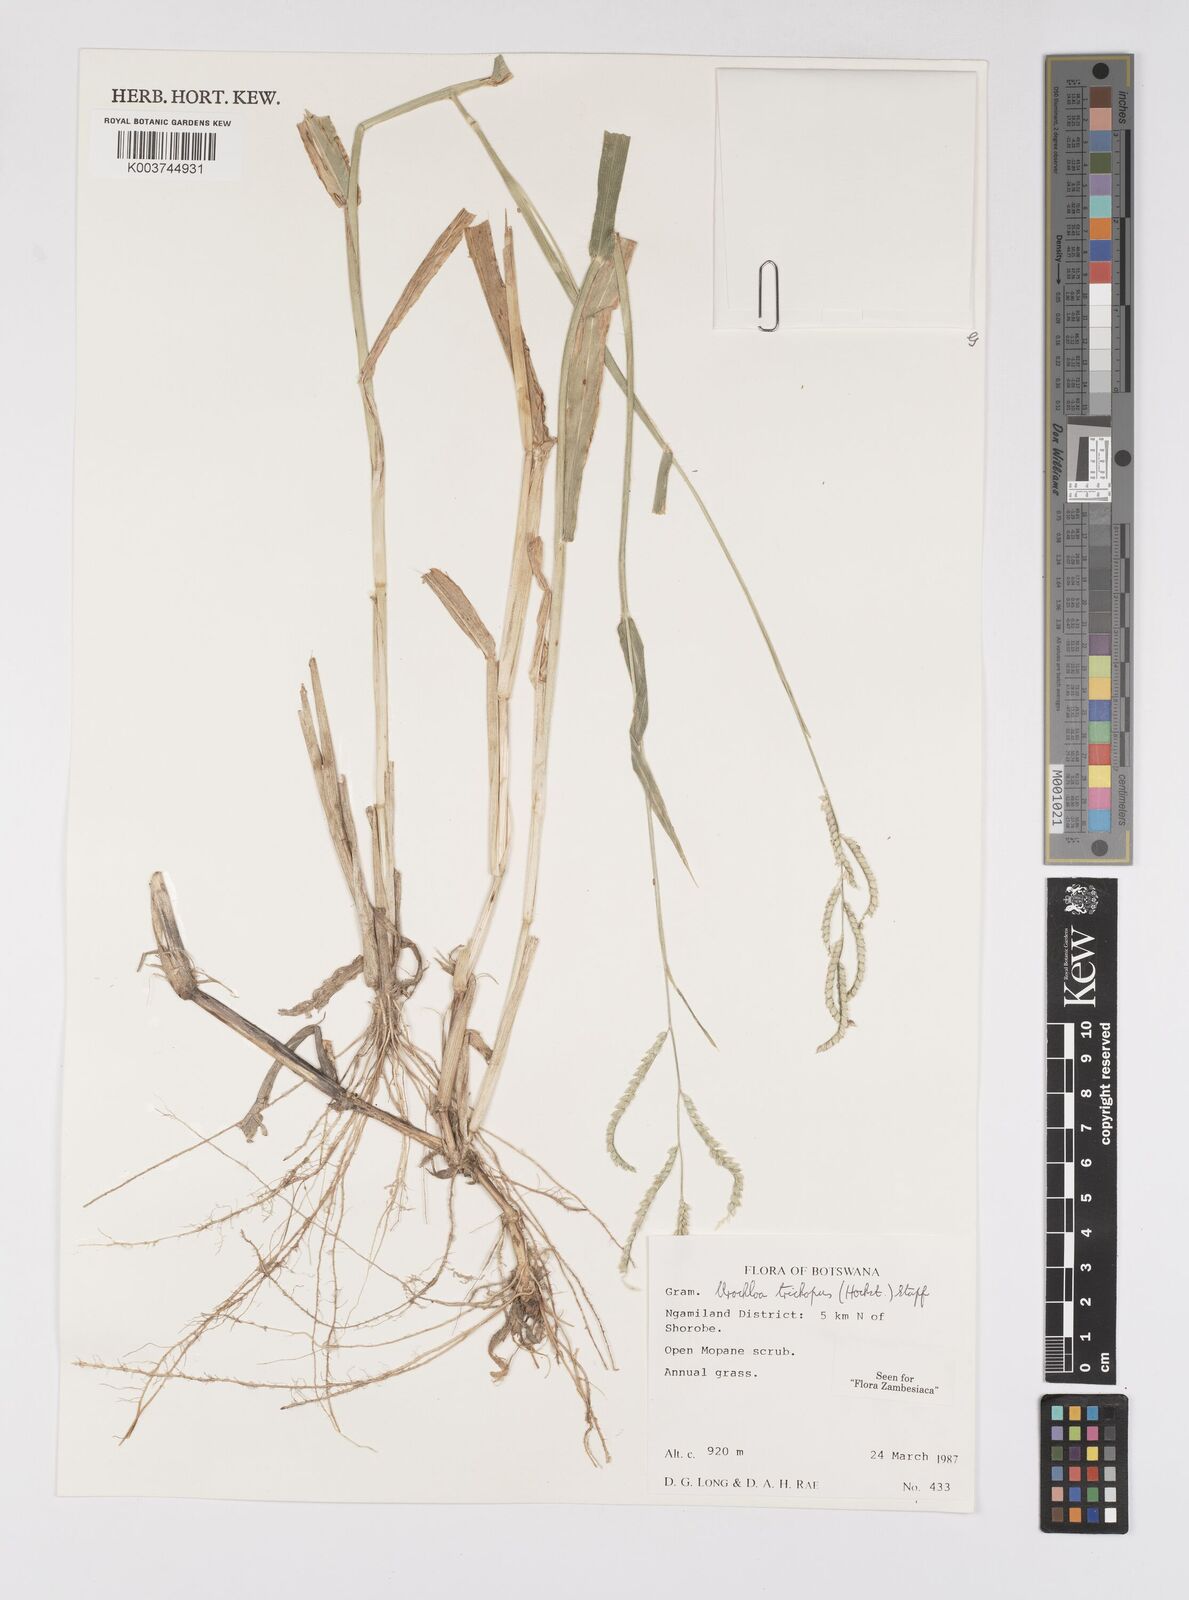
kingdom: Plantae
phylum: Tracheophyta
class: Liliopsida
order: Poales
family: Poaceae
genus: Urochloa
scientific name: Urochloa trichopus
